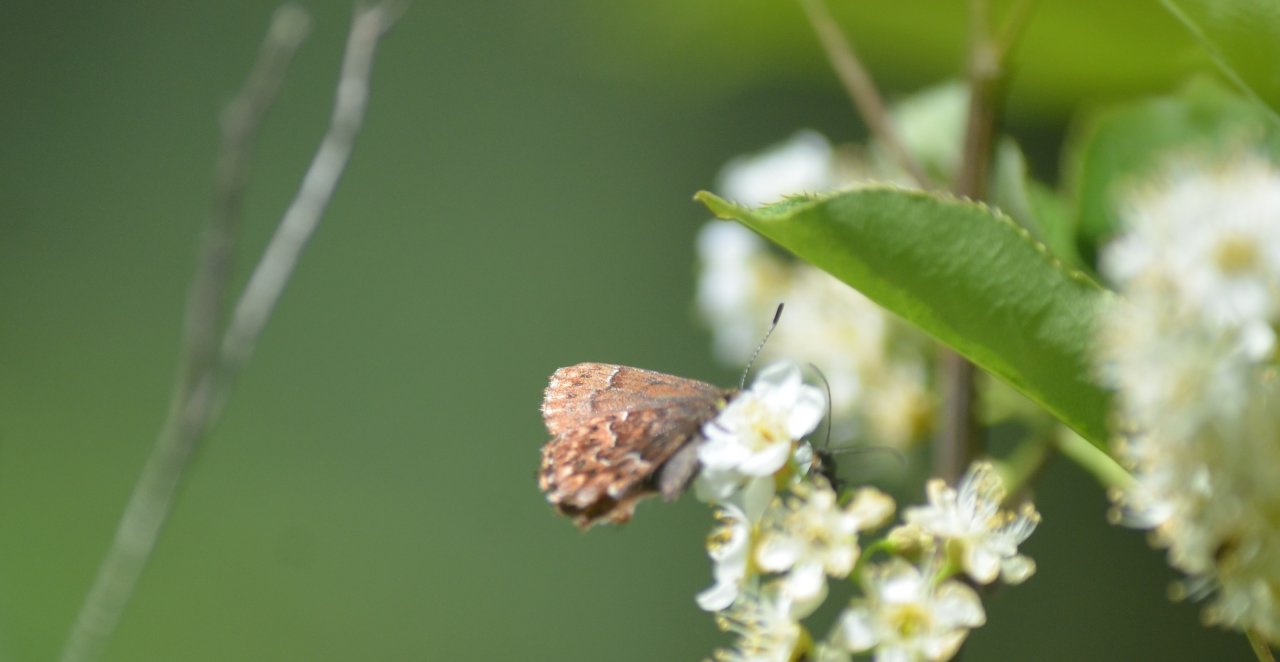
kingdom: Animalia
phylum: Arthropoda
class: Insecta
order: Lepidoptera
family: Lycaenidae
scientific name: Lycaenidae
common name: Gossamerwings
